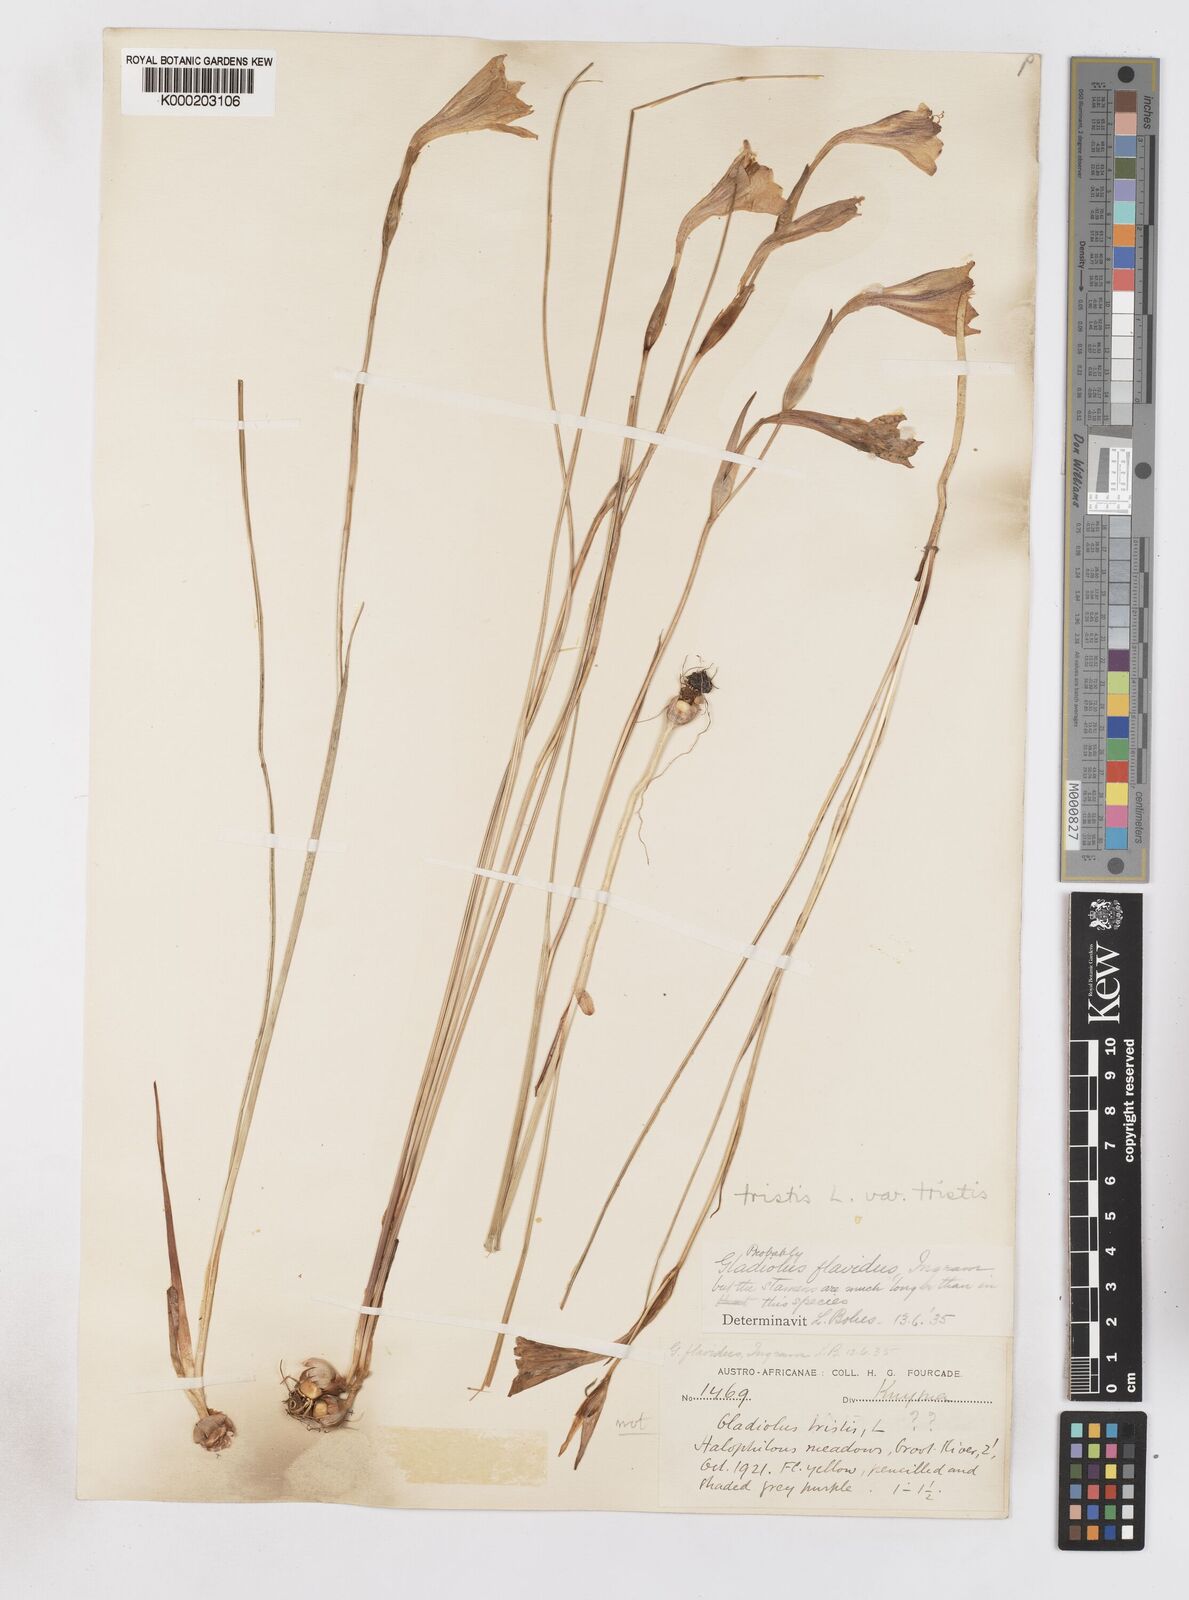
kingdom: Plantae
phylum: Tracheophyta
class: Liliopsida
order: Asparagales
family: Iridaceae
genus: Gladiolus
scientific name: Gladiolus tristis
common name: Ever-flowering gladiolus
